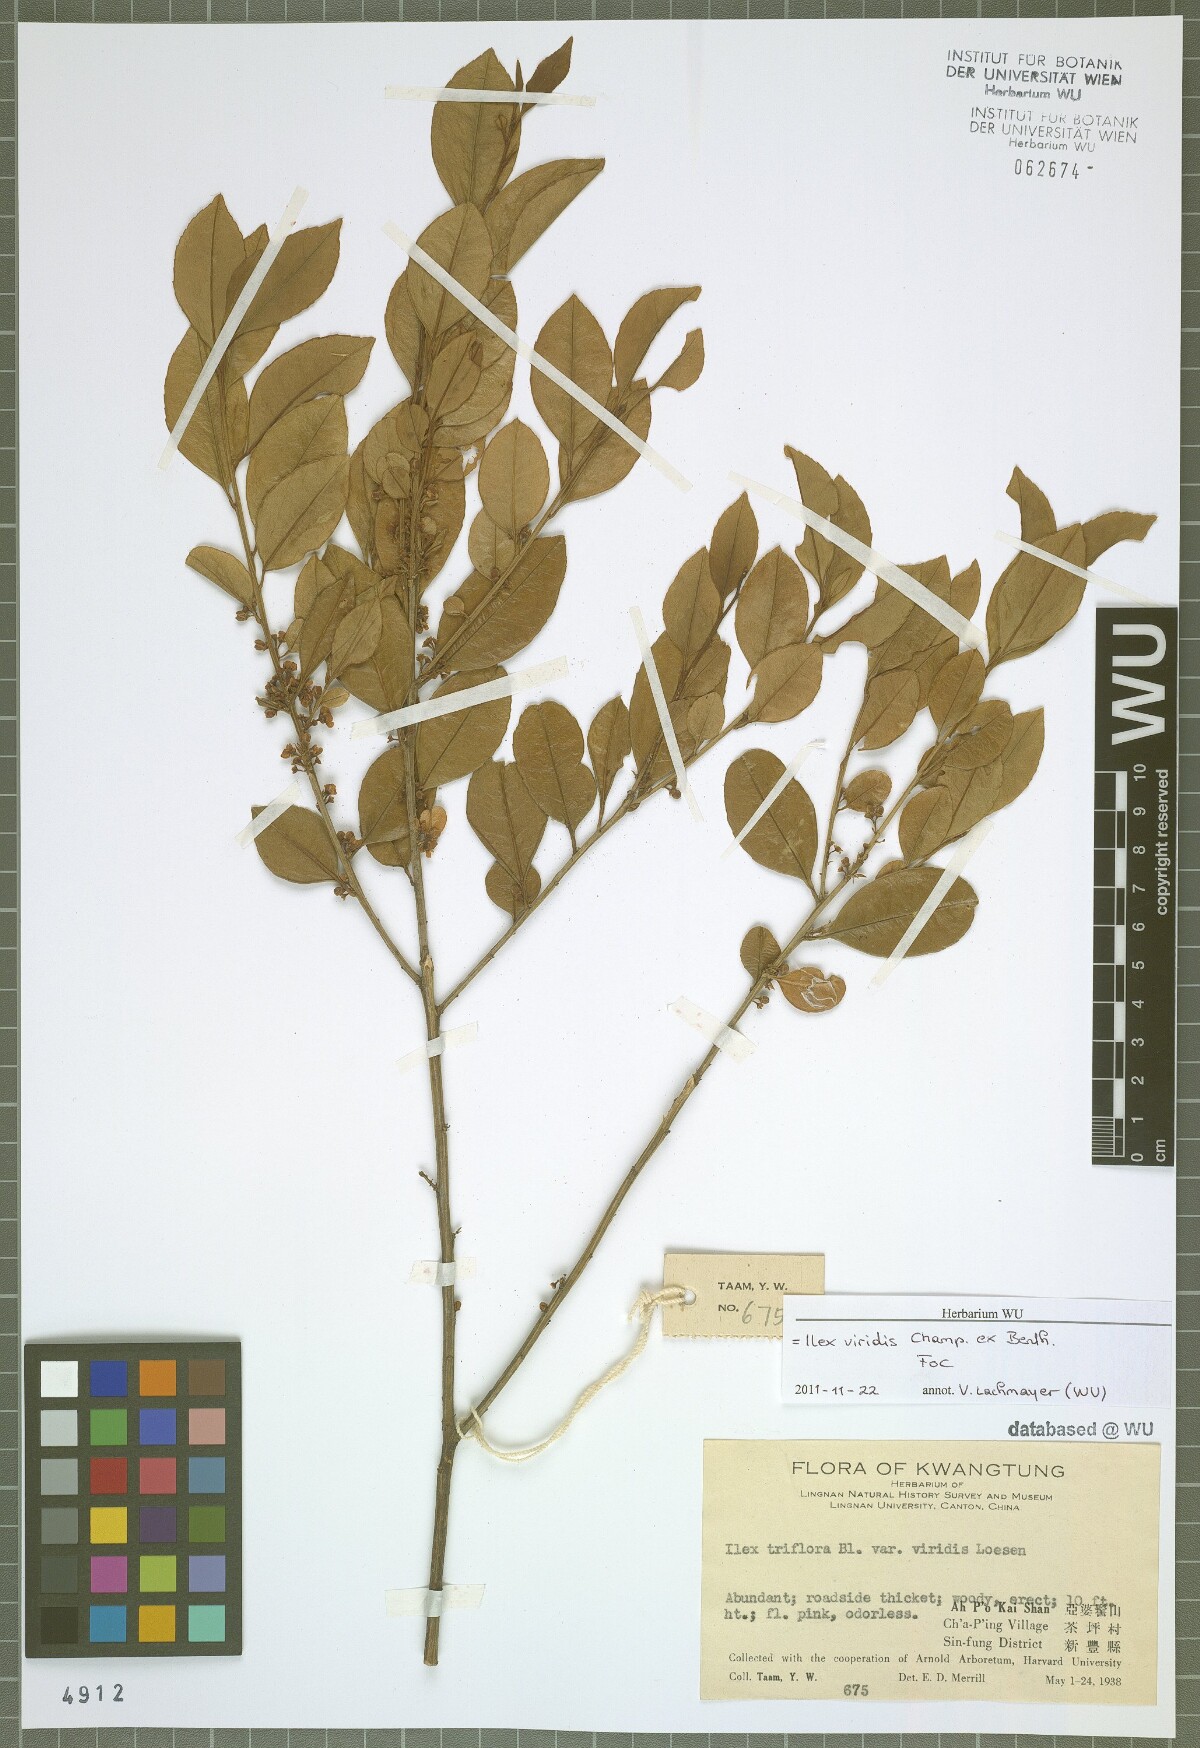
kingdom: Plantae
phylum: Tracheophyta
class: Magnoliopsida
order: Aquifoliales
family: Aquifoliaceae
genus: Ilex
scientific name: Ilex viridis
